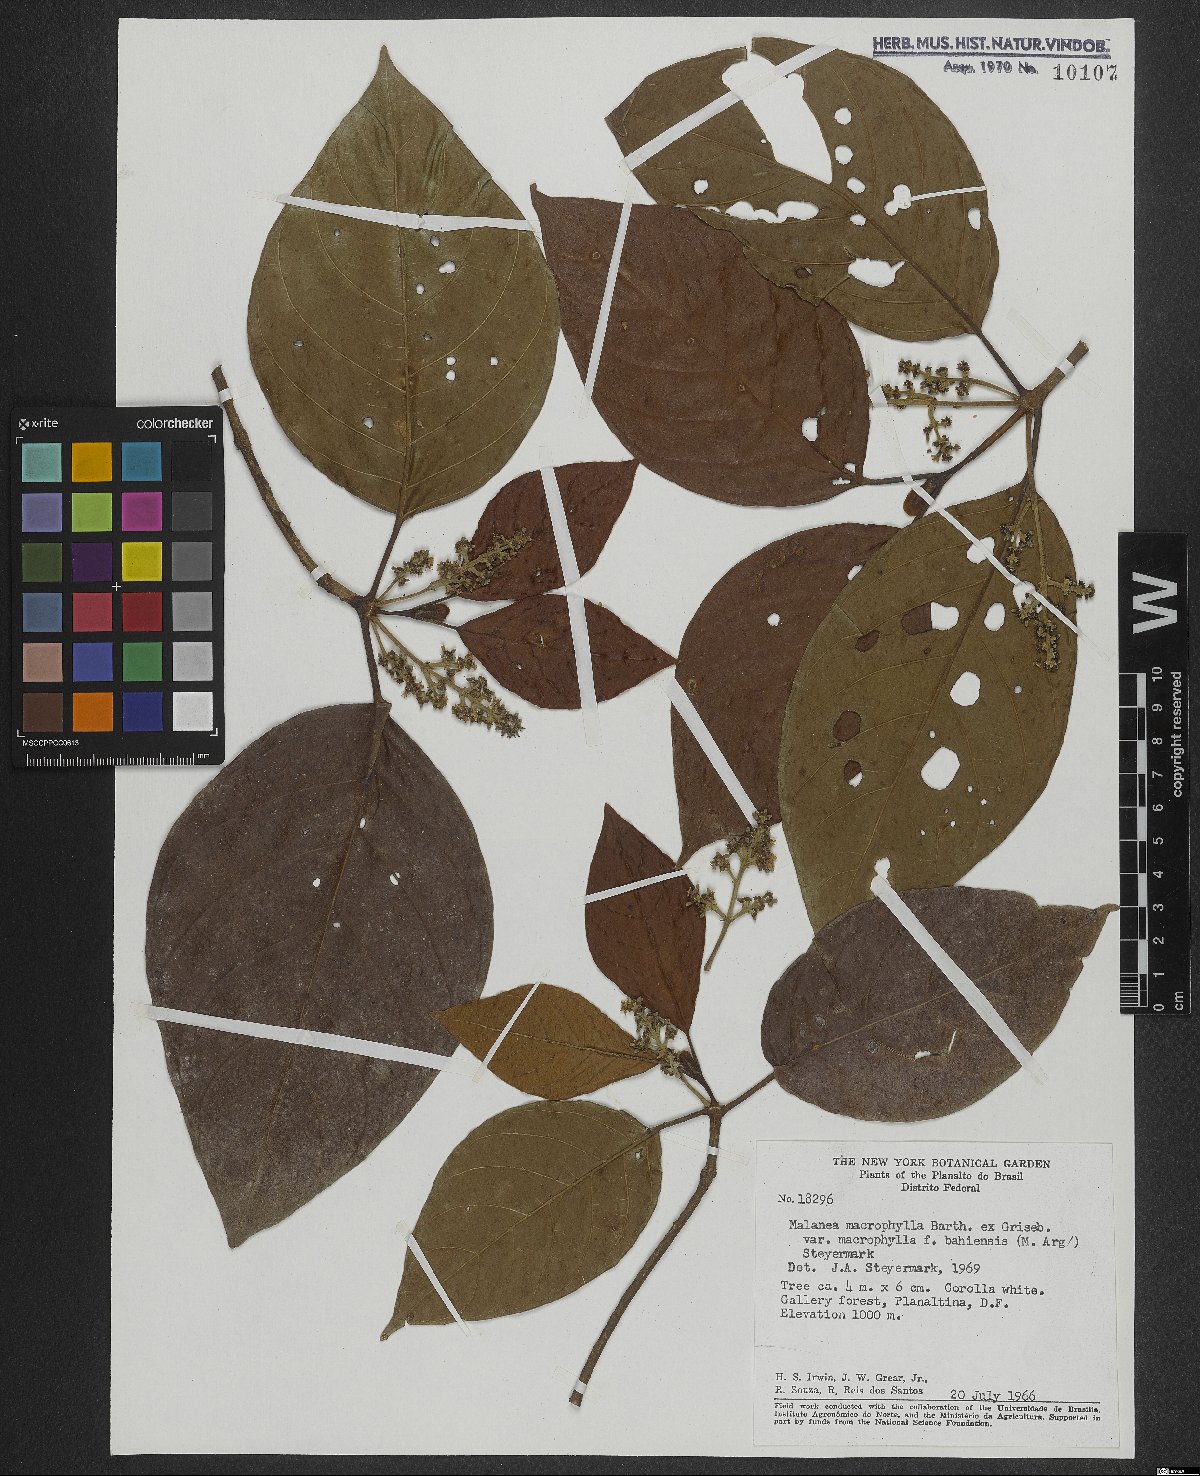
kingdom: Plantae
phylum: Tracheophyta
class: Magnoliopsida
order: Gentianales
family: Rubiaceae
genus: Malanea
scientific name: Malanea glabra
